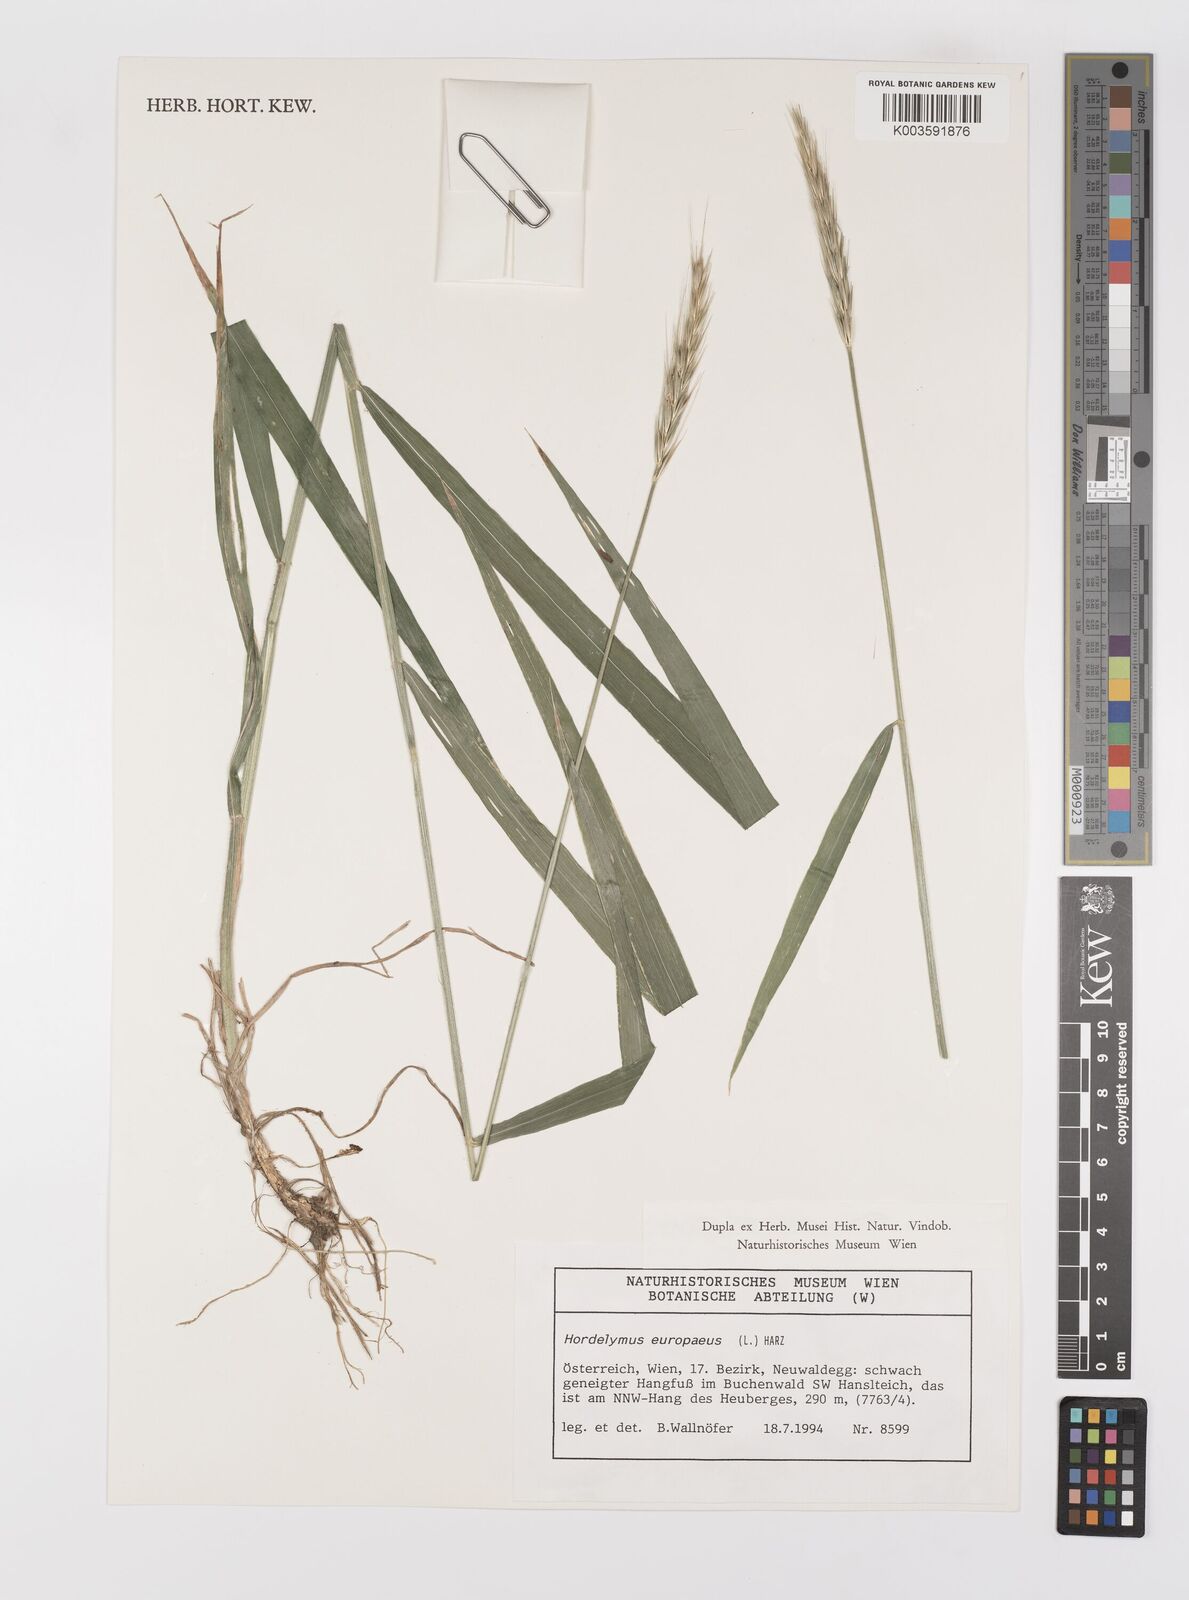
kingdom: Plantae
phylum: Tracheophyta
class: Liliopsida
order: Poales
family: Poaceae
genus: Hordelymus
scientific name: Hordelymus europaeus
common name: Wood-barley
